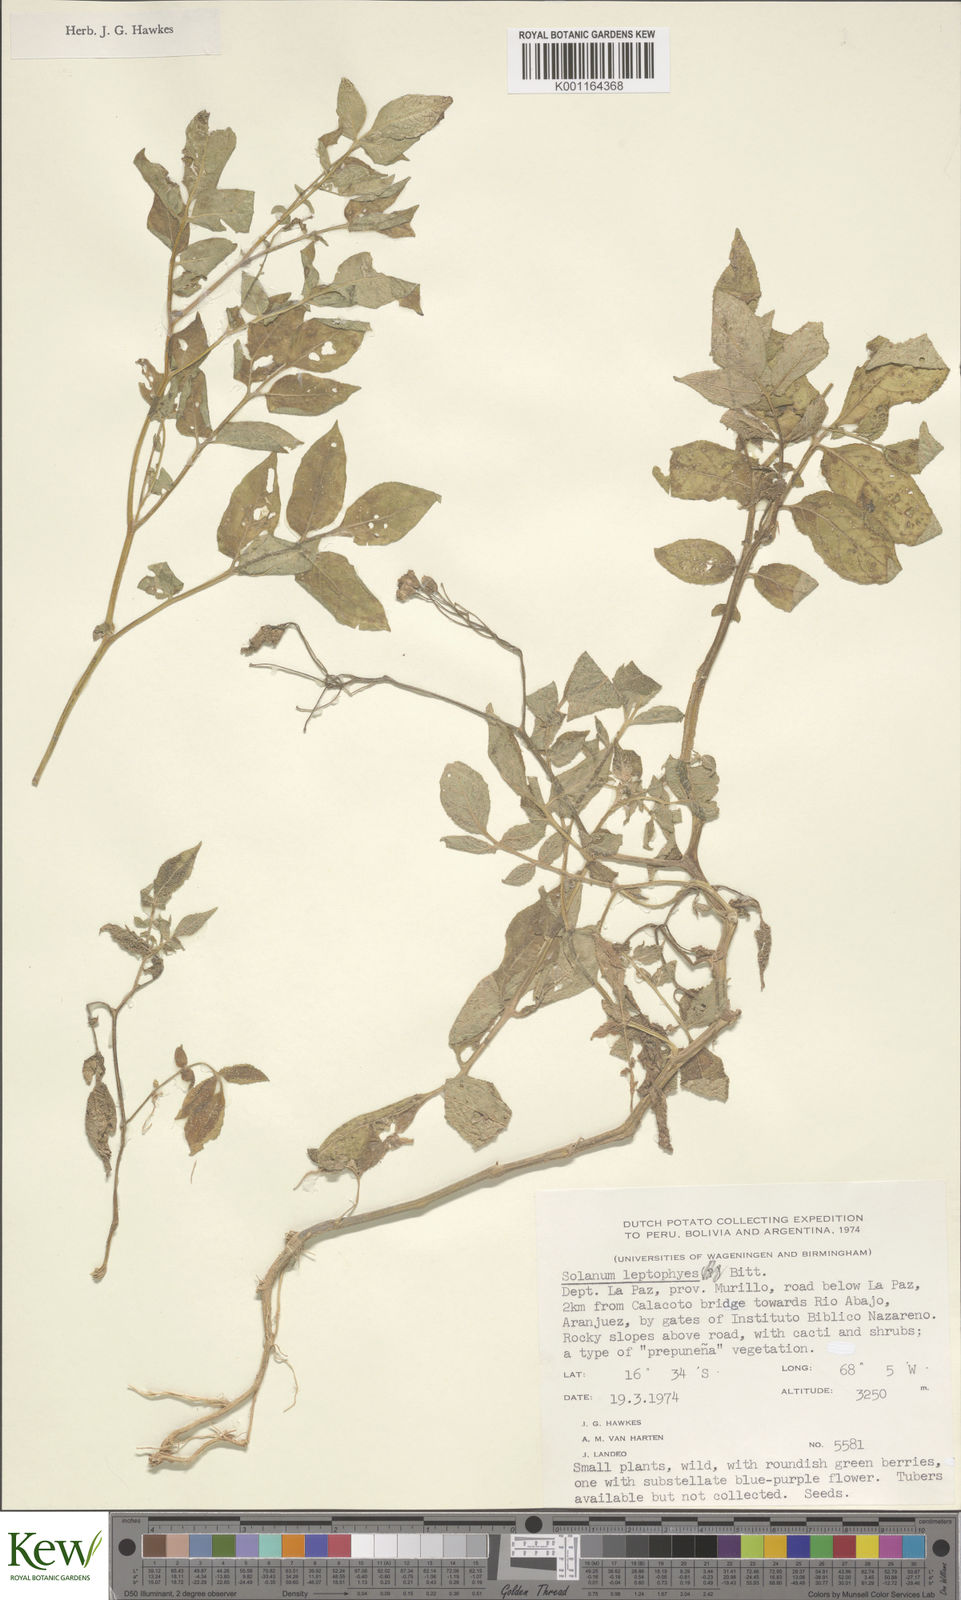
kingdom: Plantae
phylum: Tracheophyta
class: Magnoliopsida
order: Solanales
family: Solanaceae
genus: Solanum
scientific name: Solanum brevicaule
